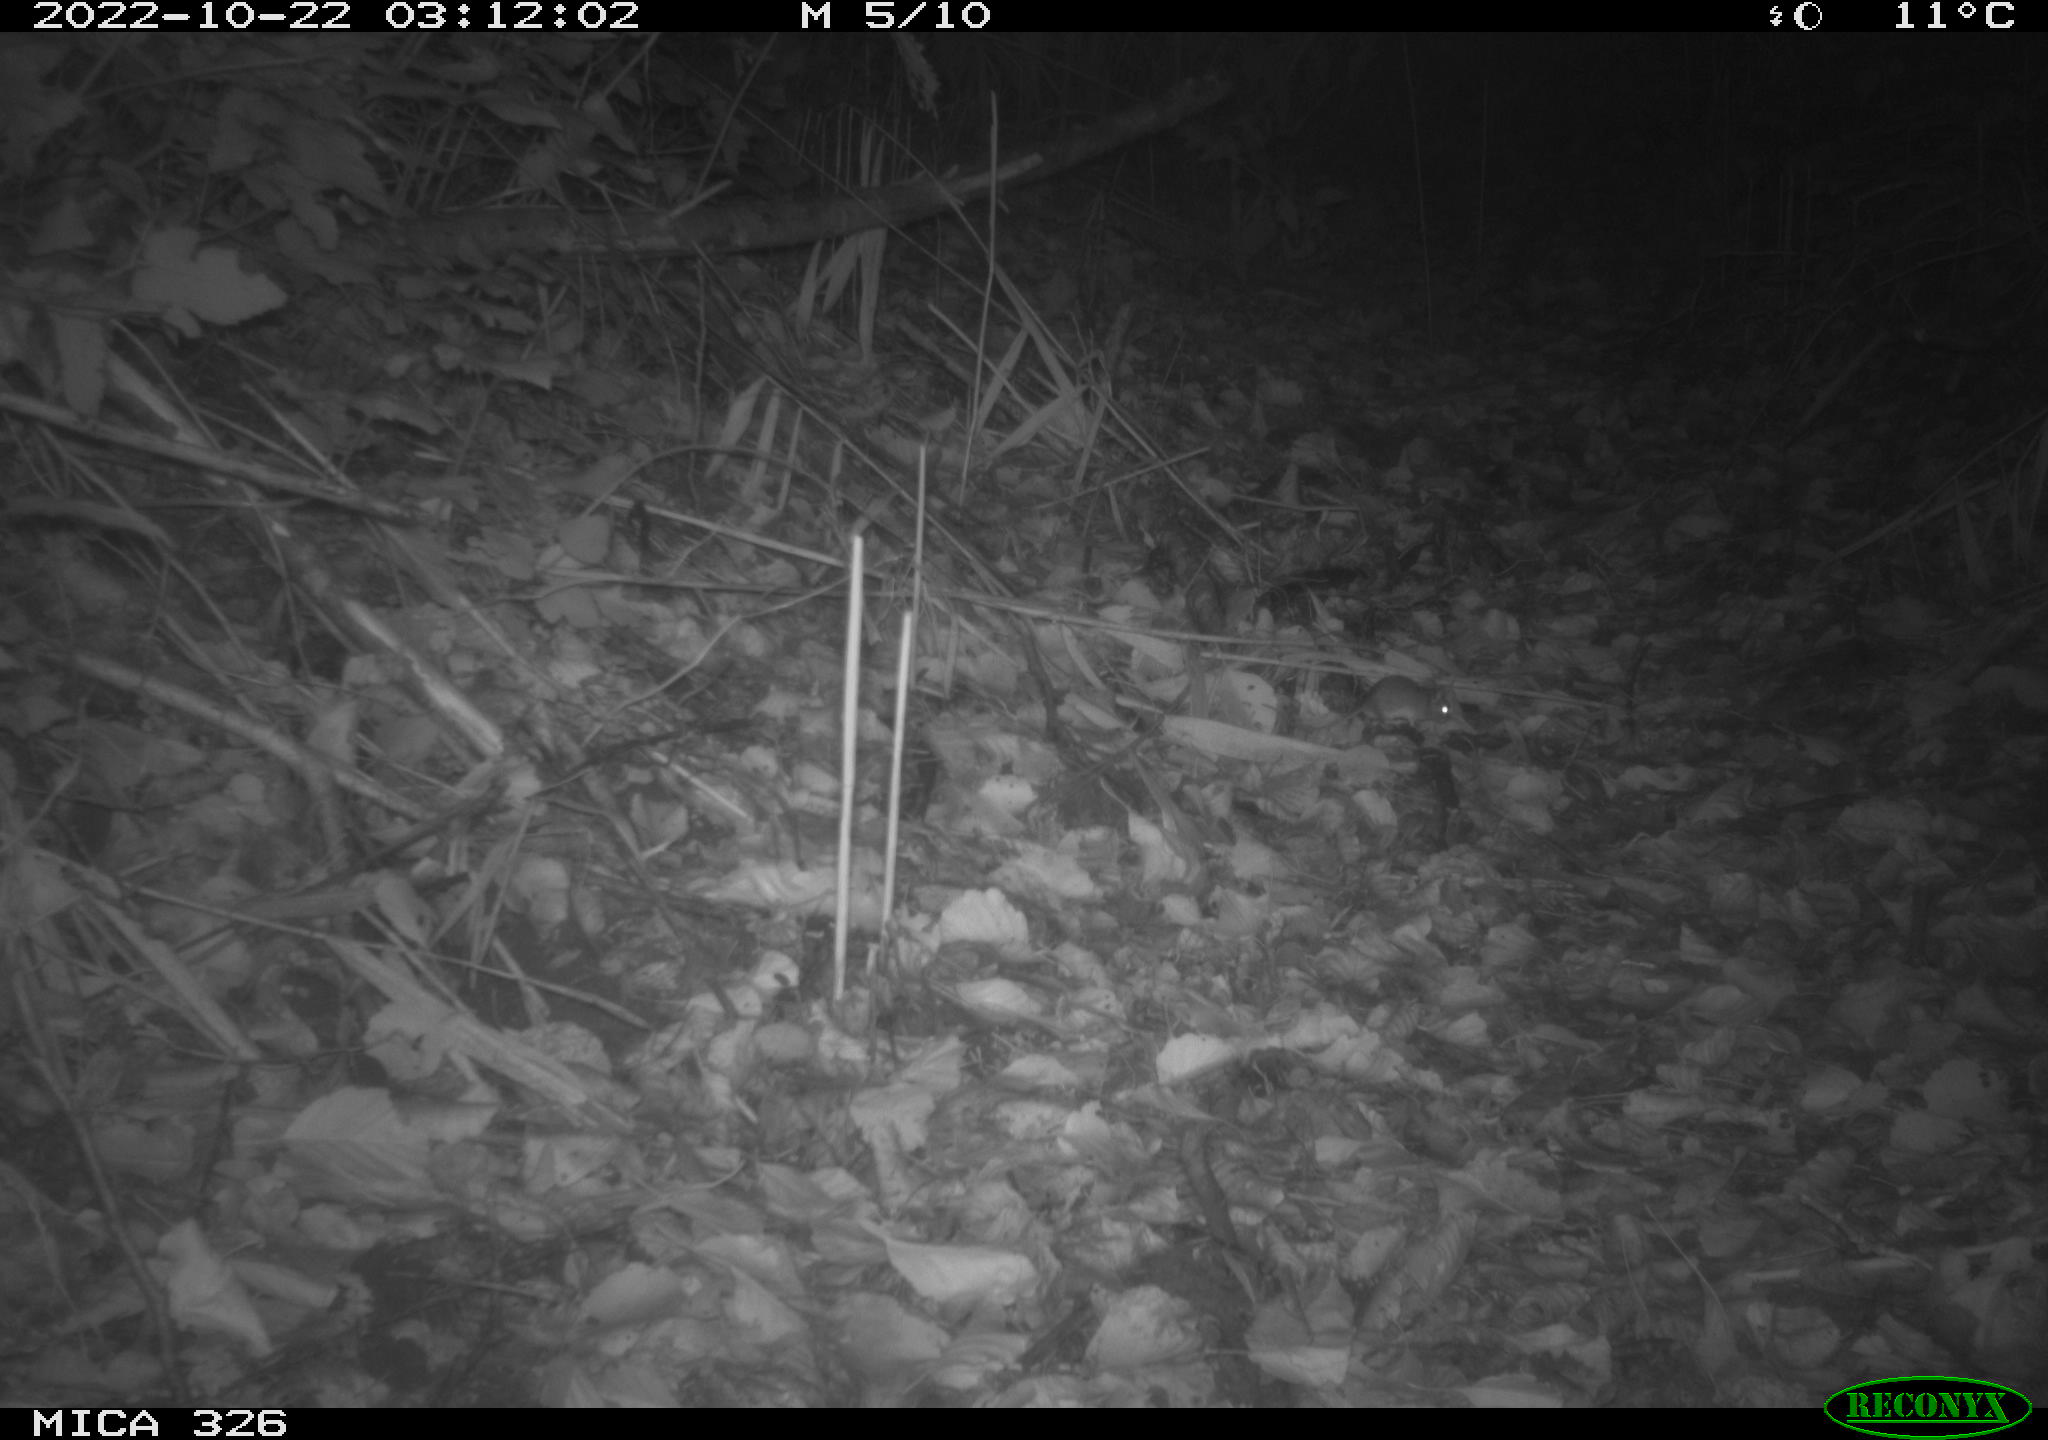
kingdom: Animalia
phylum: Chordata
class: Mammalia
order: Rodentia
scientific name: Rodentia
